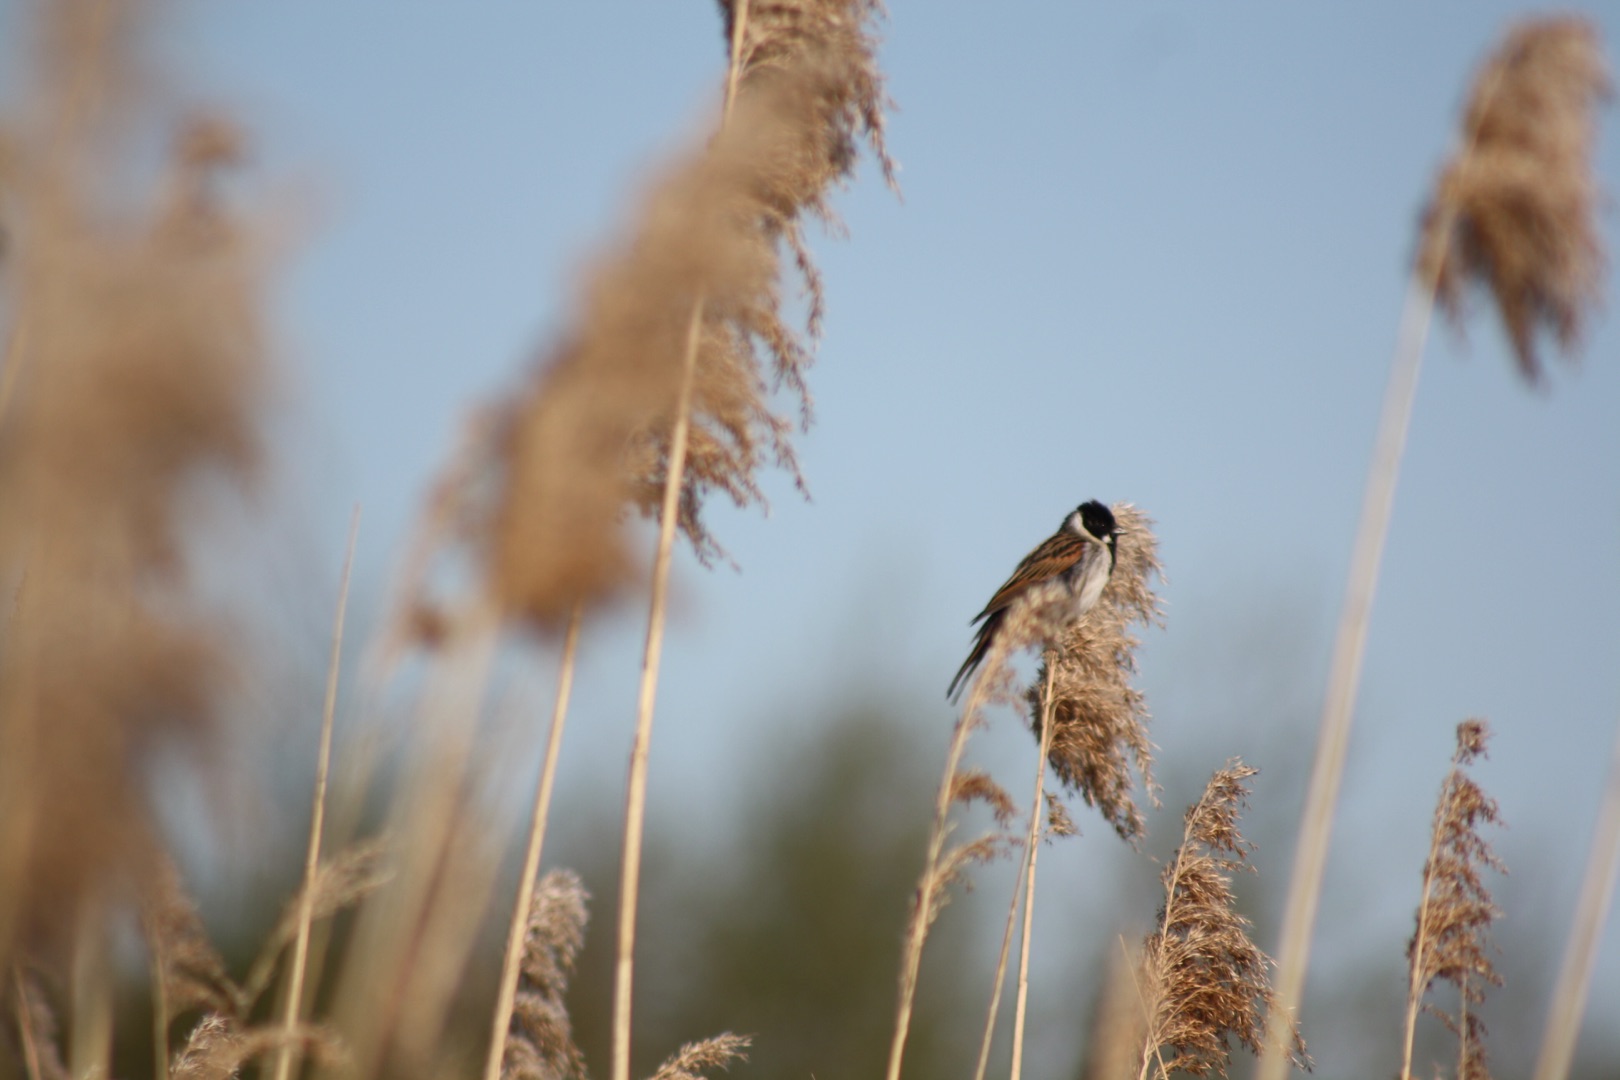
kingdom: Animalia
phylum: Chordata
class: Aves
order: Passeriformes
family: Emberizidae
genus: Emberiza
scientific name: Emberiza schoeniclus
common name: Rørspurv
